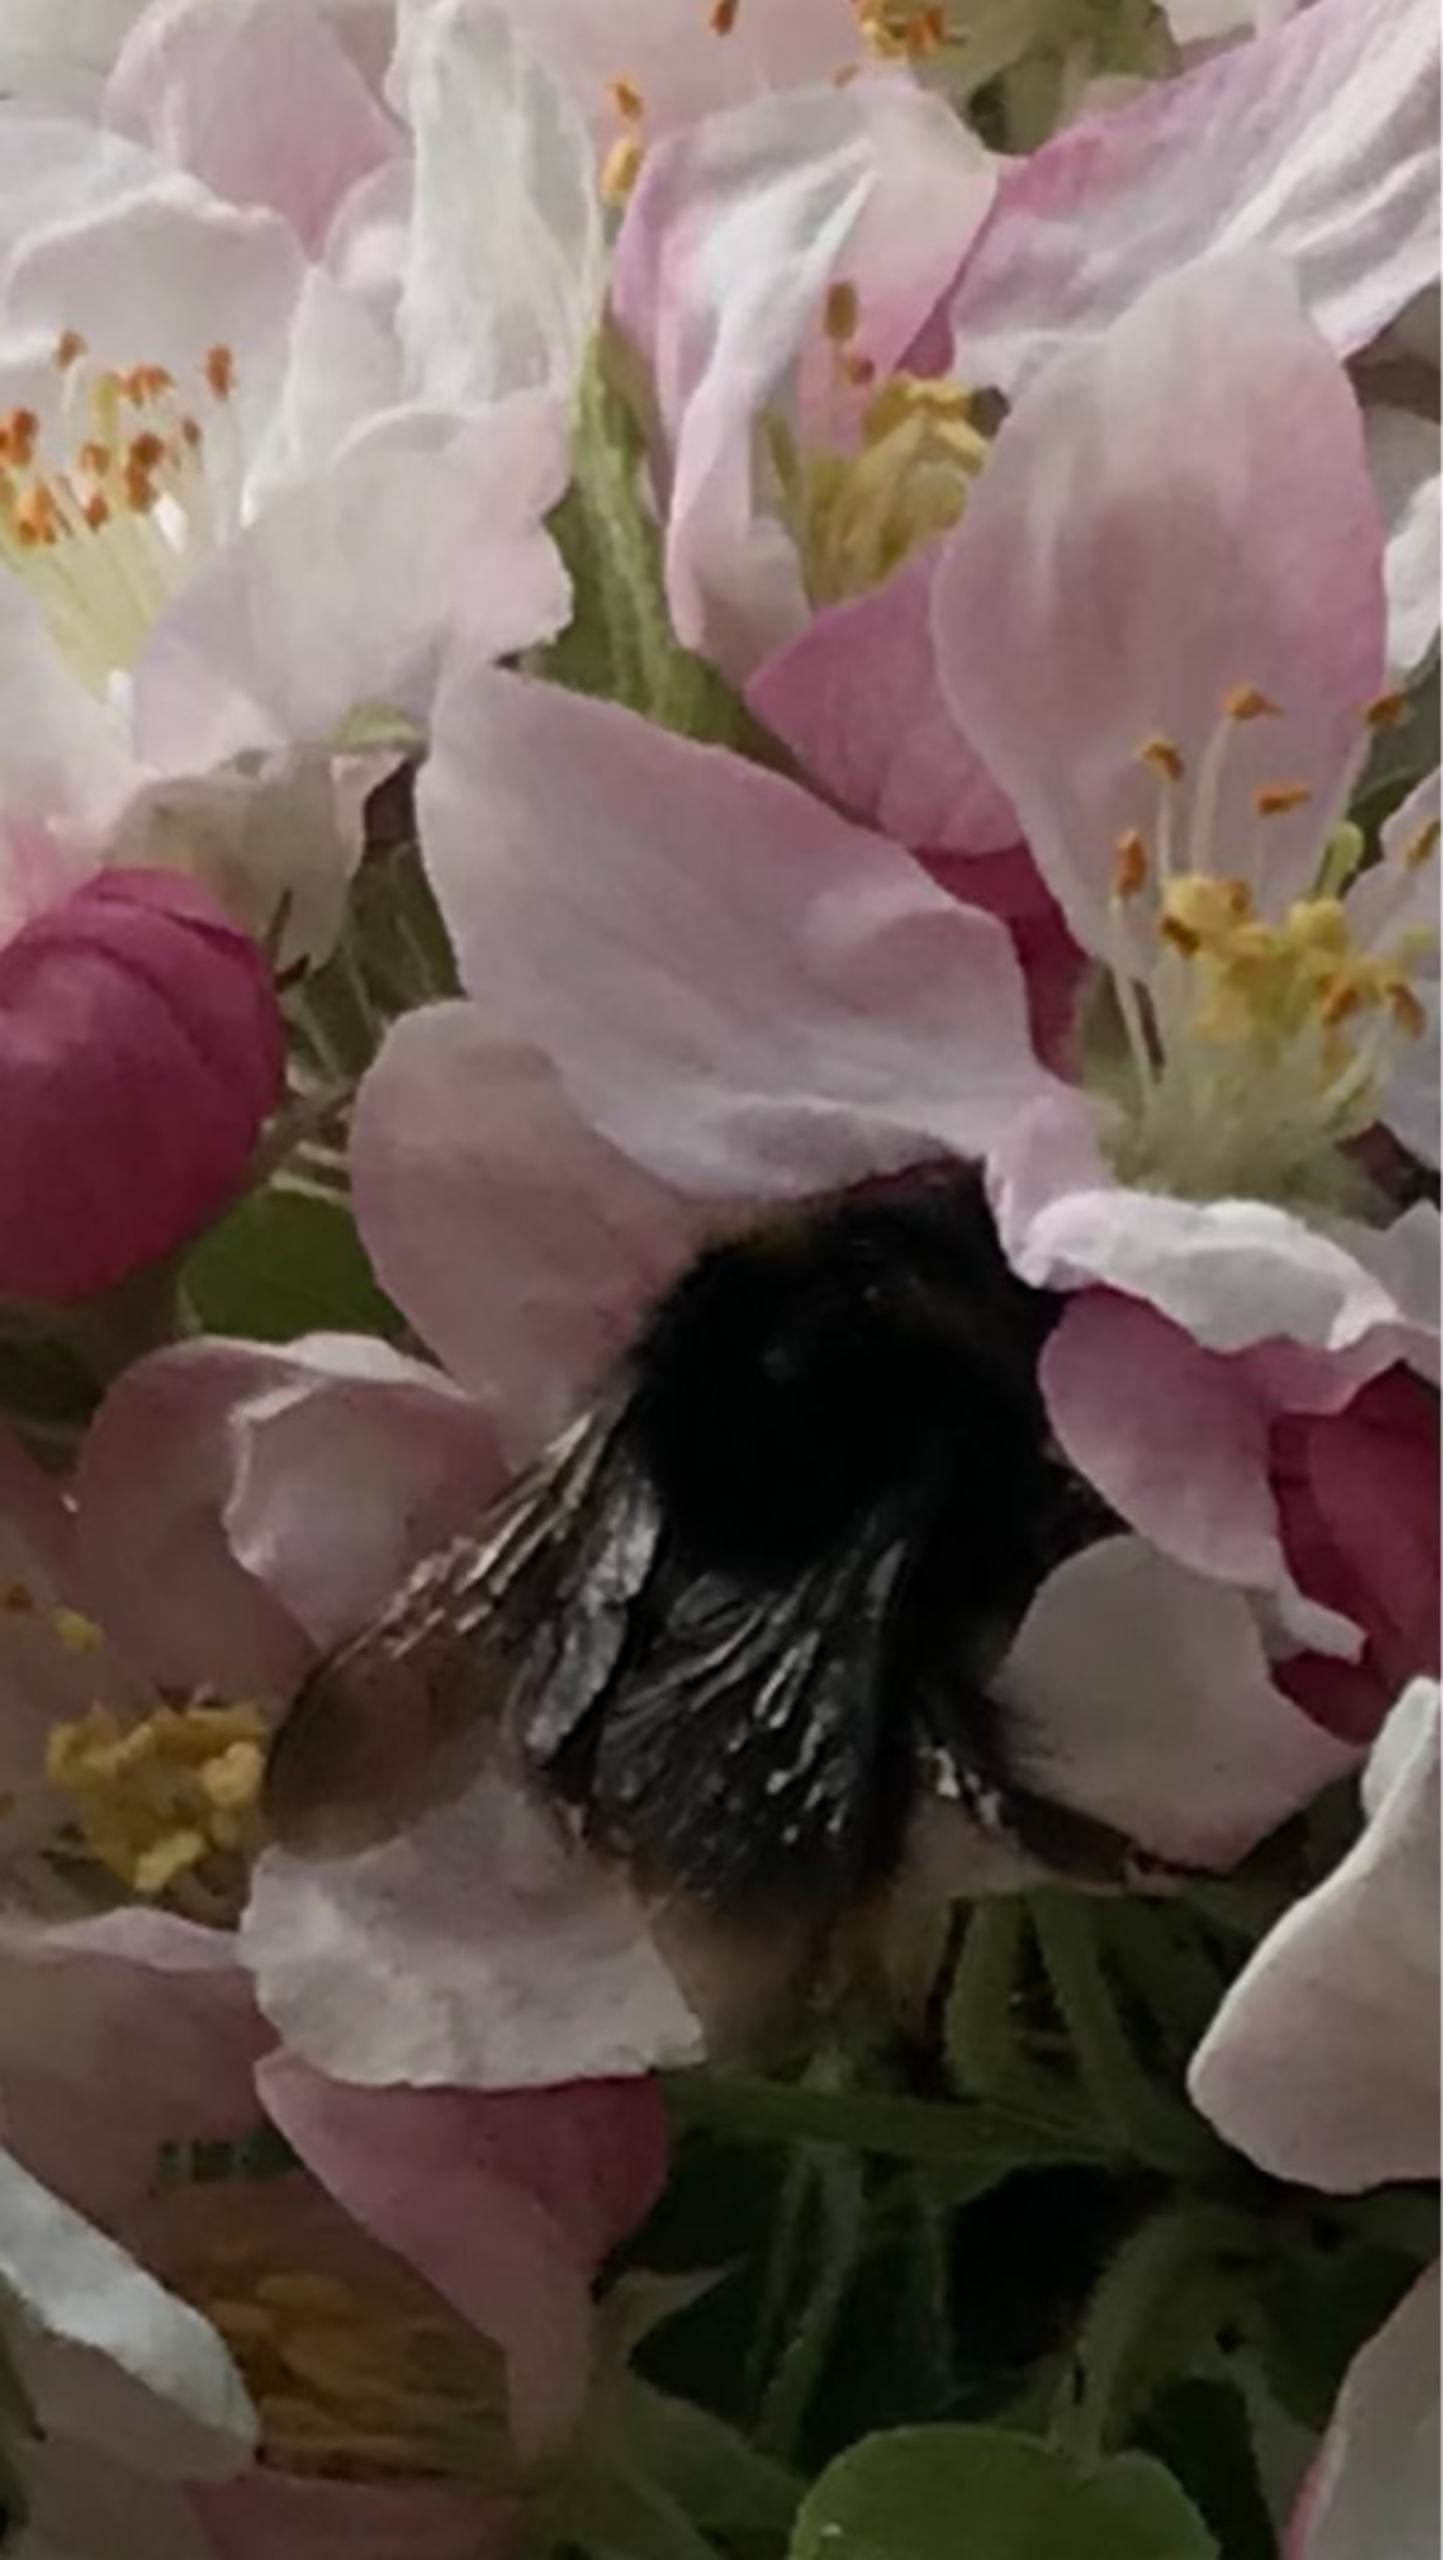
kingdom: Animalia
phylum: Arthropoda
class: Insecta
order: Hymenoptera
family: Apidae
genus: Bombus
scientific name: Bombus
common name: Humlebier
